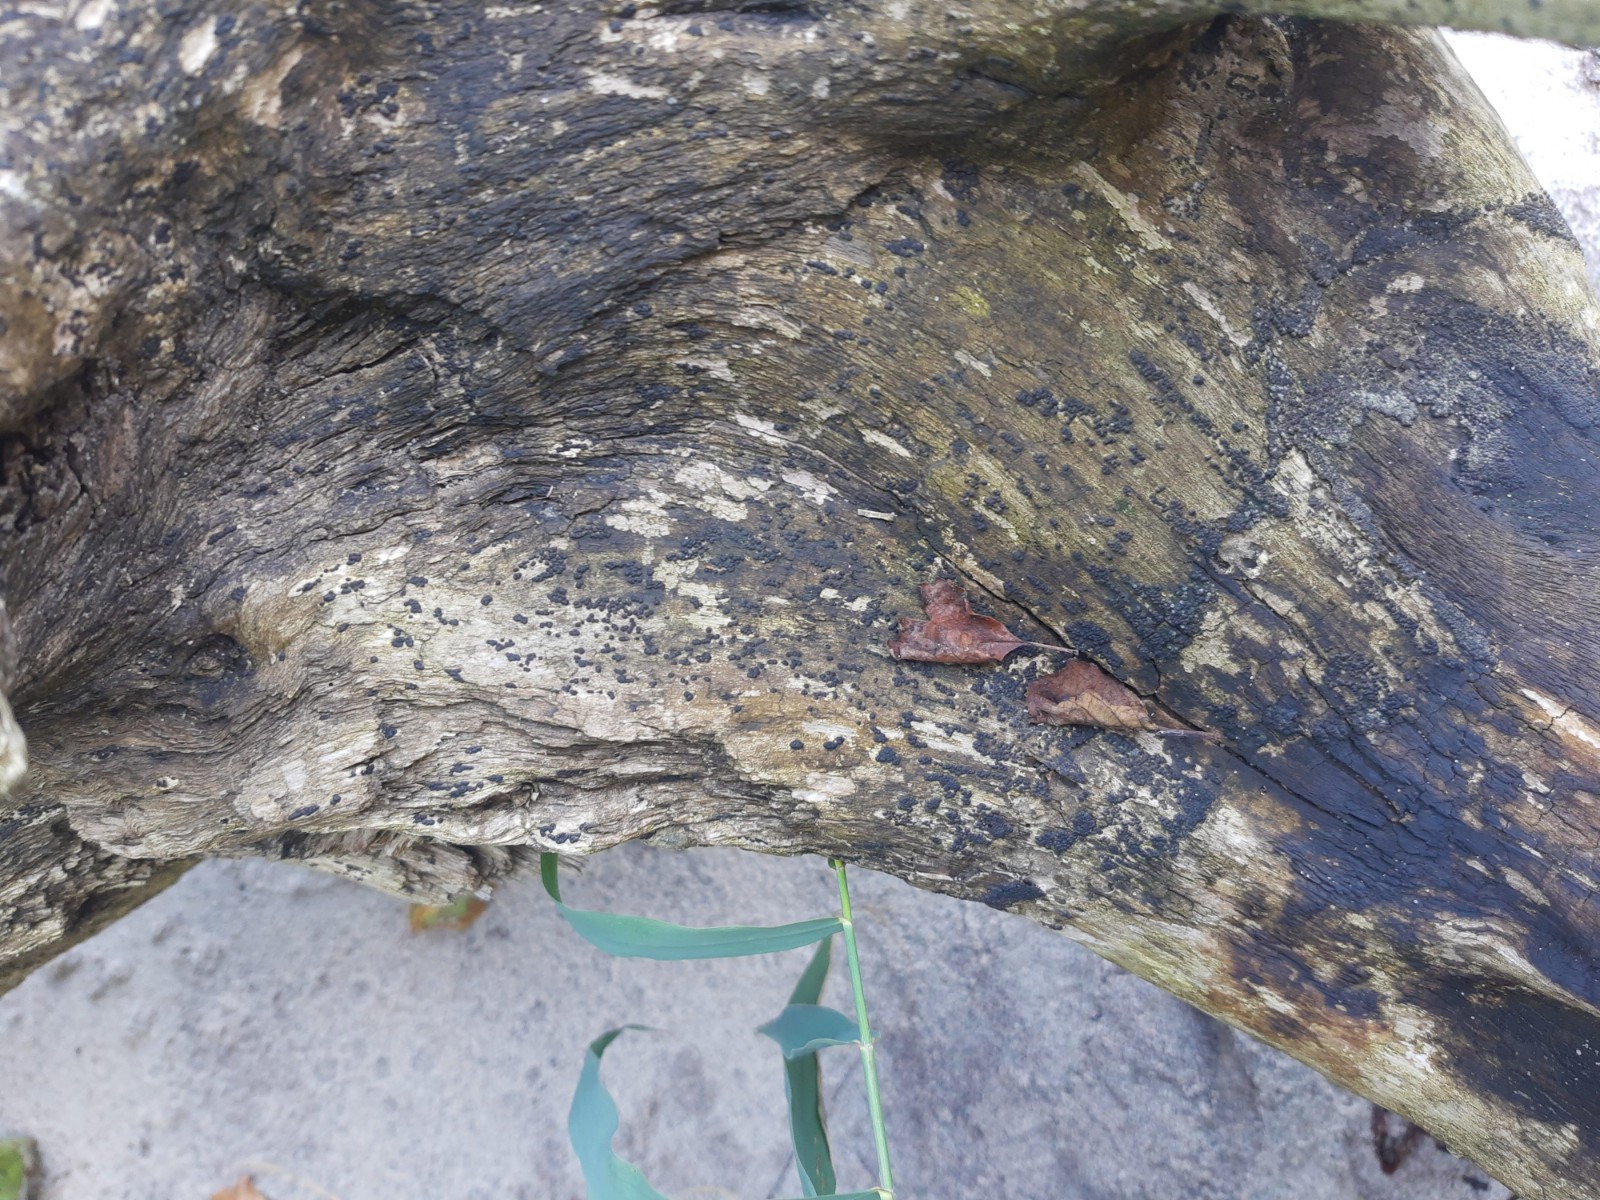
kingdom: Fungi
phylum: Ascomycota
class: Sordariomycetes
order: Xylariales
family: Xylariaceae
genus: Nemania
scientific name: Nemania maritima
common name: strand-kuldyne
